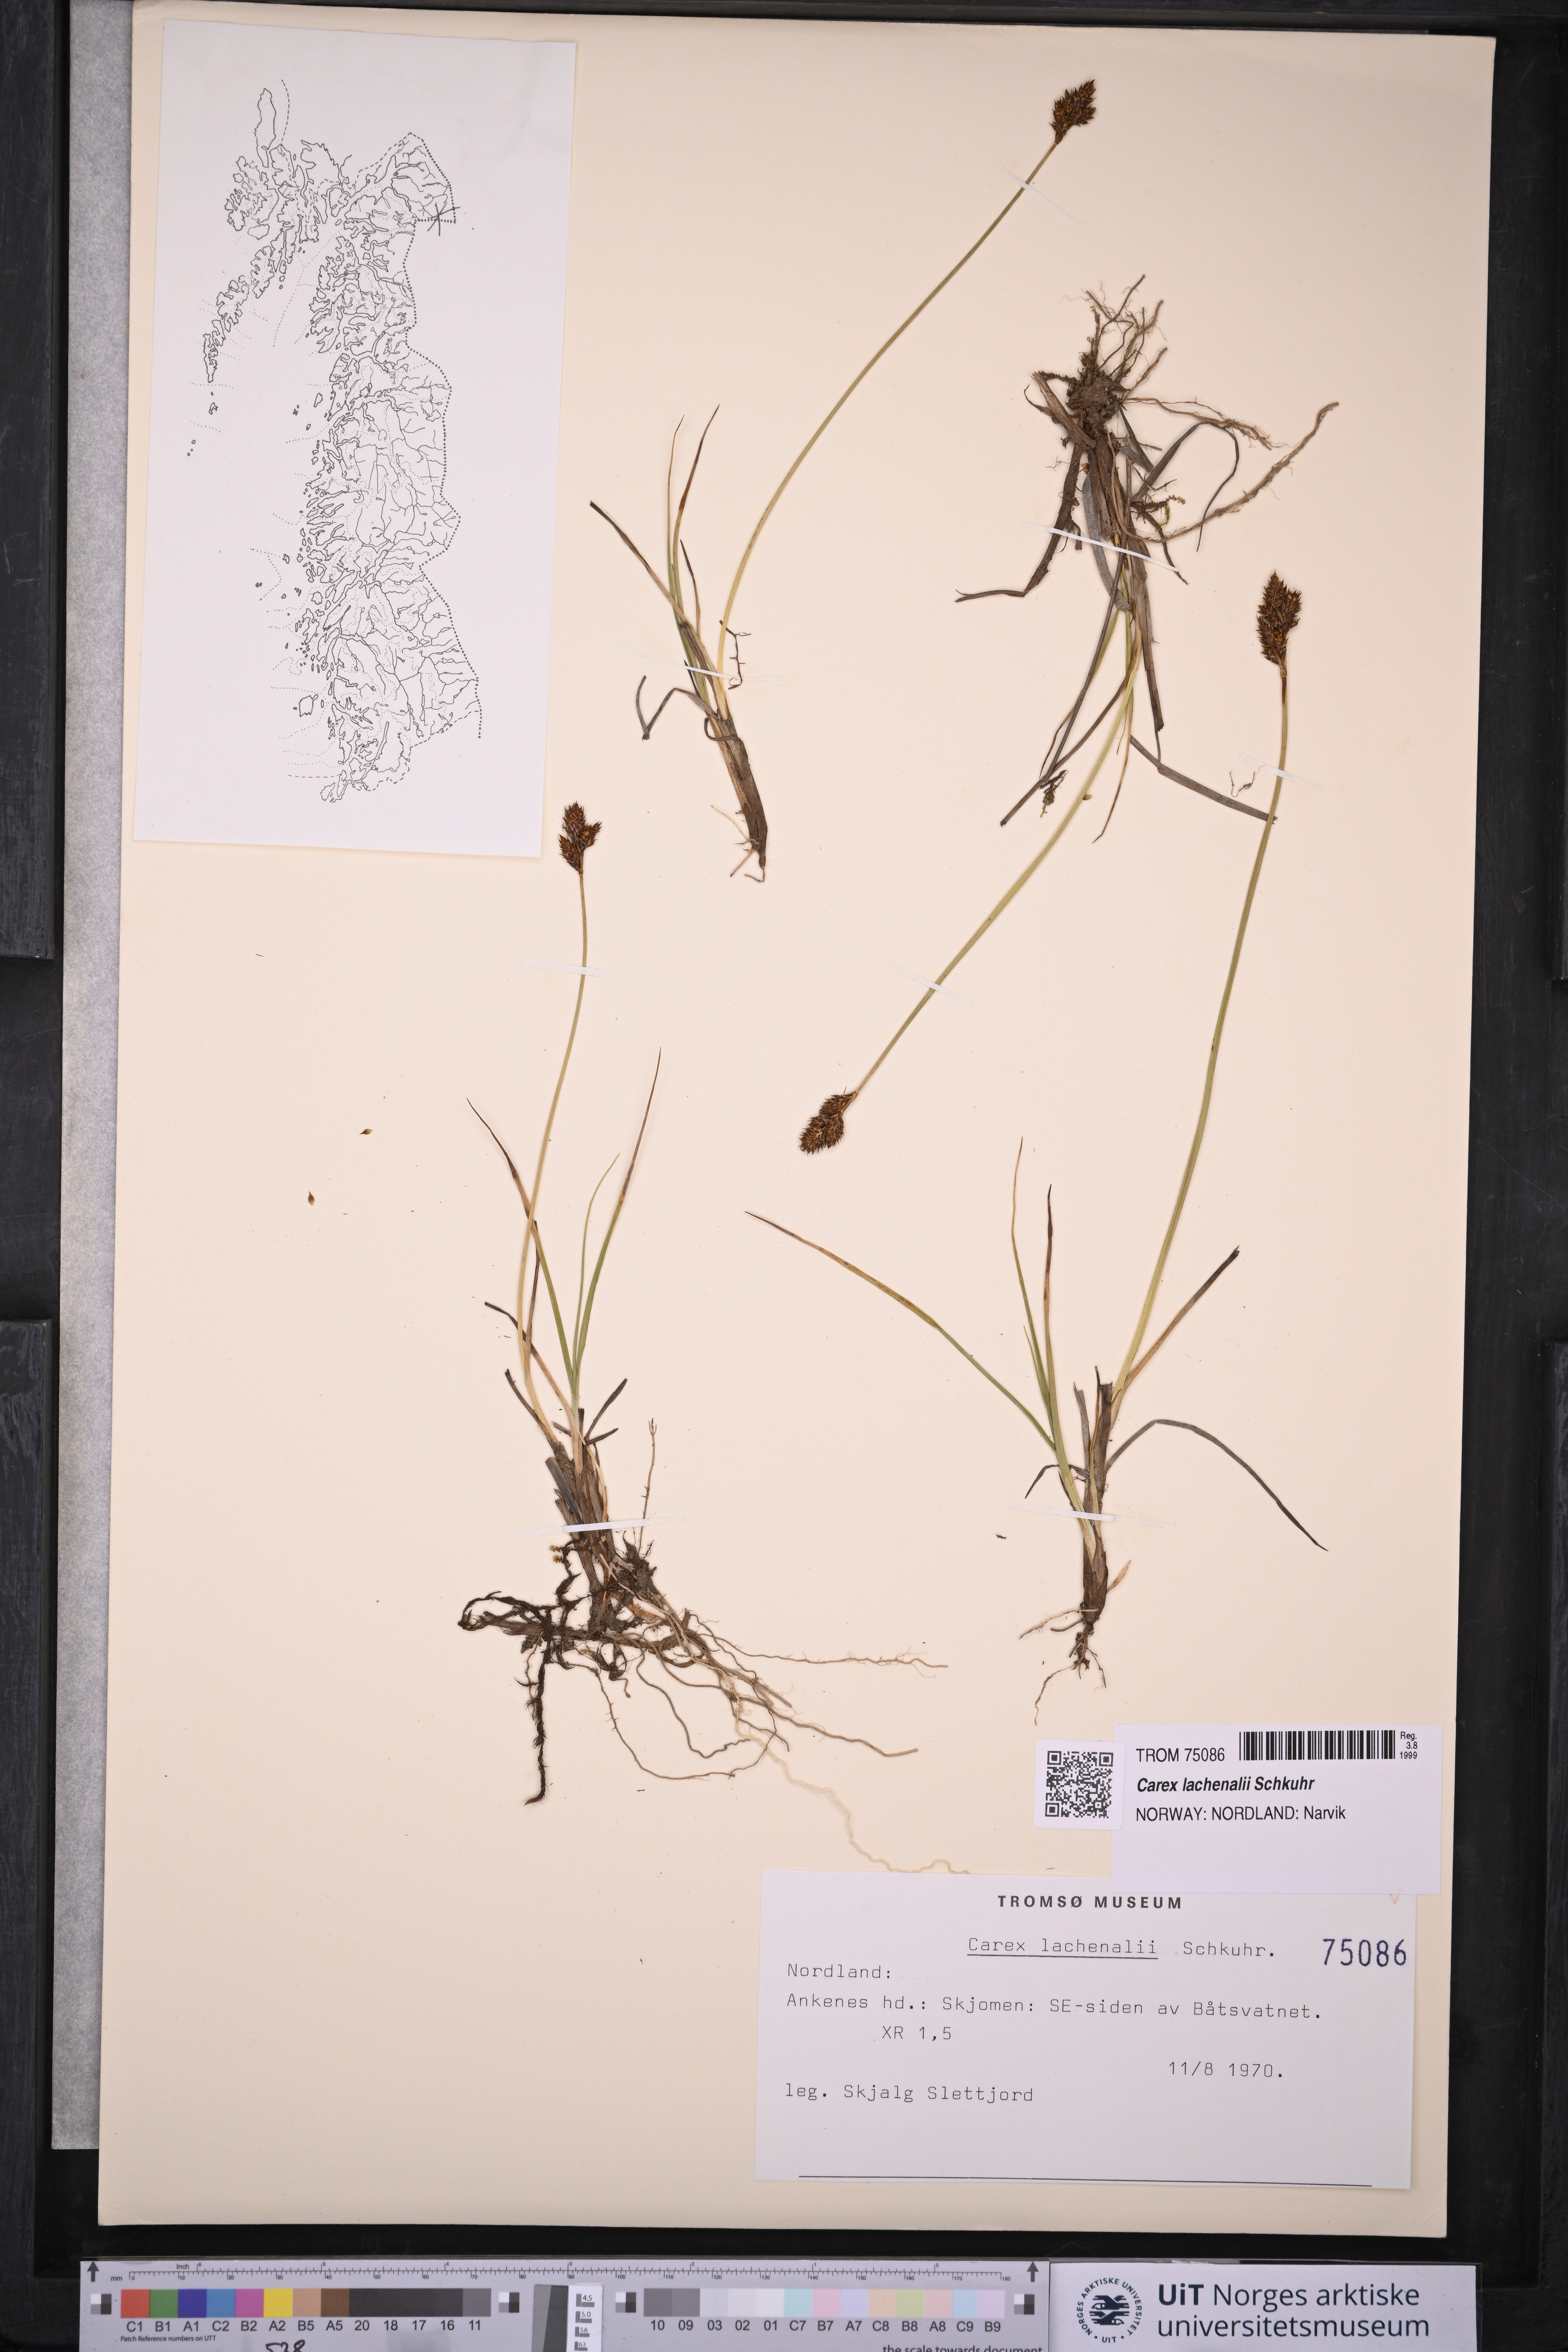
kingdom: Plantae
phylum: Tracheophyta
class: Liliopsida
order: Poales
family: Cyperaceae
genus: Carex
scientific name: Carex lachenalii
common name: Hare's-foot sedge
